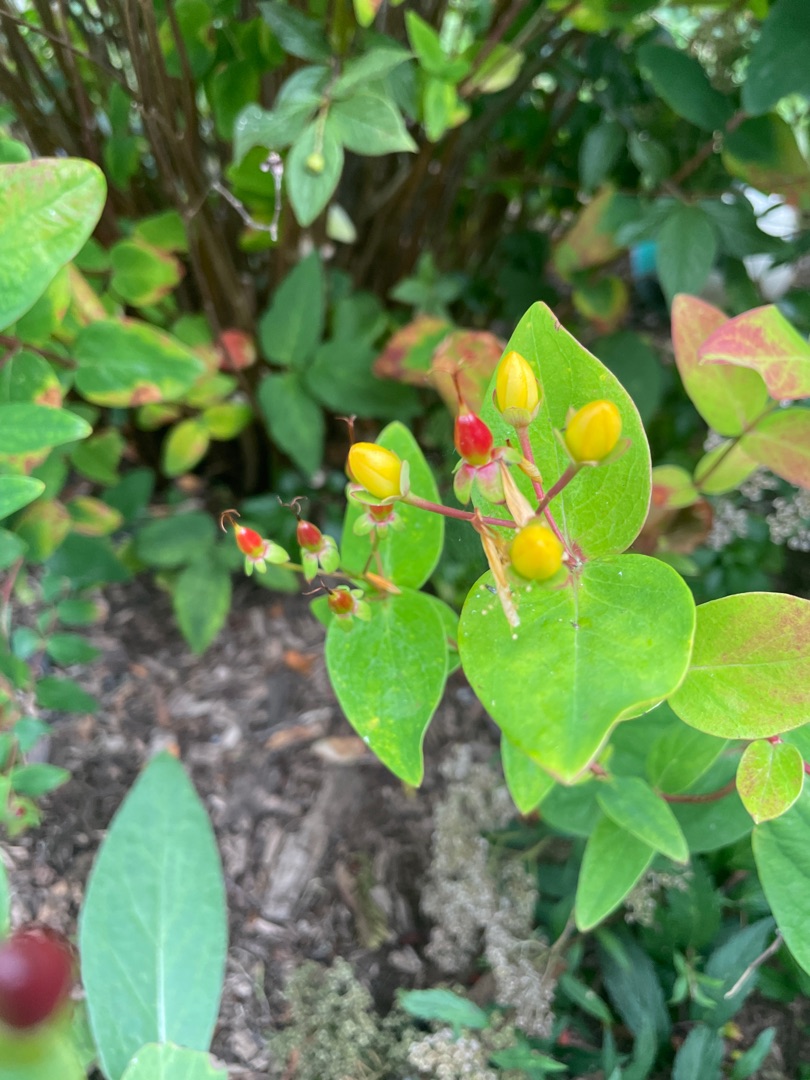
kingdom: Plantae
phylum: Tracheophyta
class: Magnoliopsida
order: Malpighiales
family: Hypericaceae
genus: Hypericum
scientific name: Hypericum inodorum
